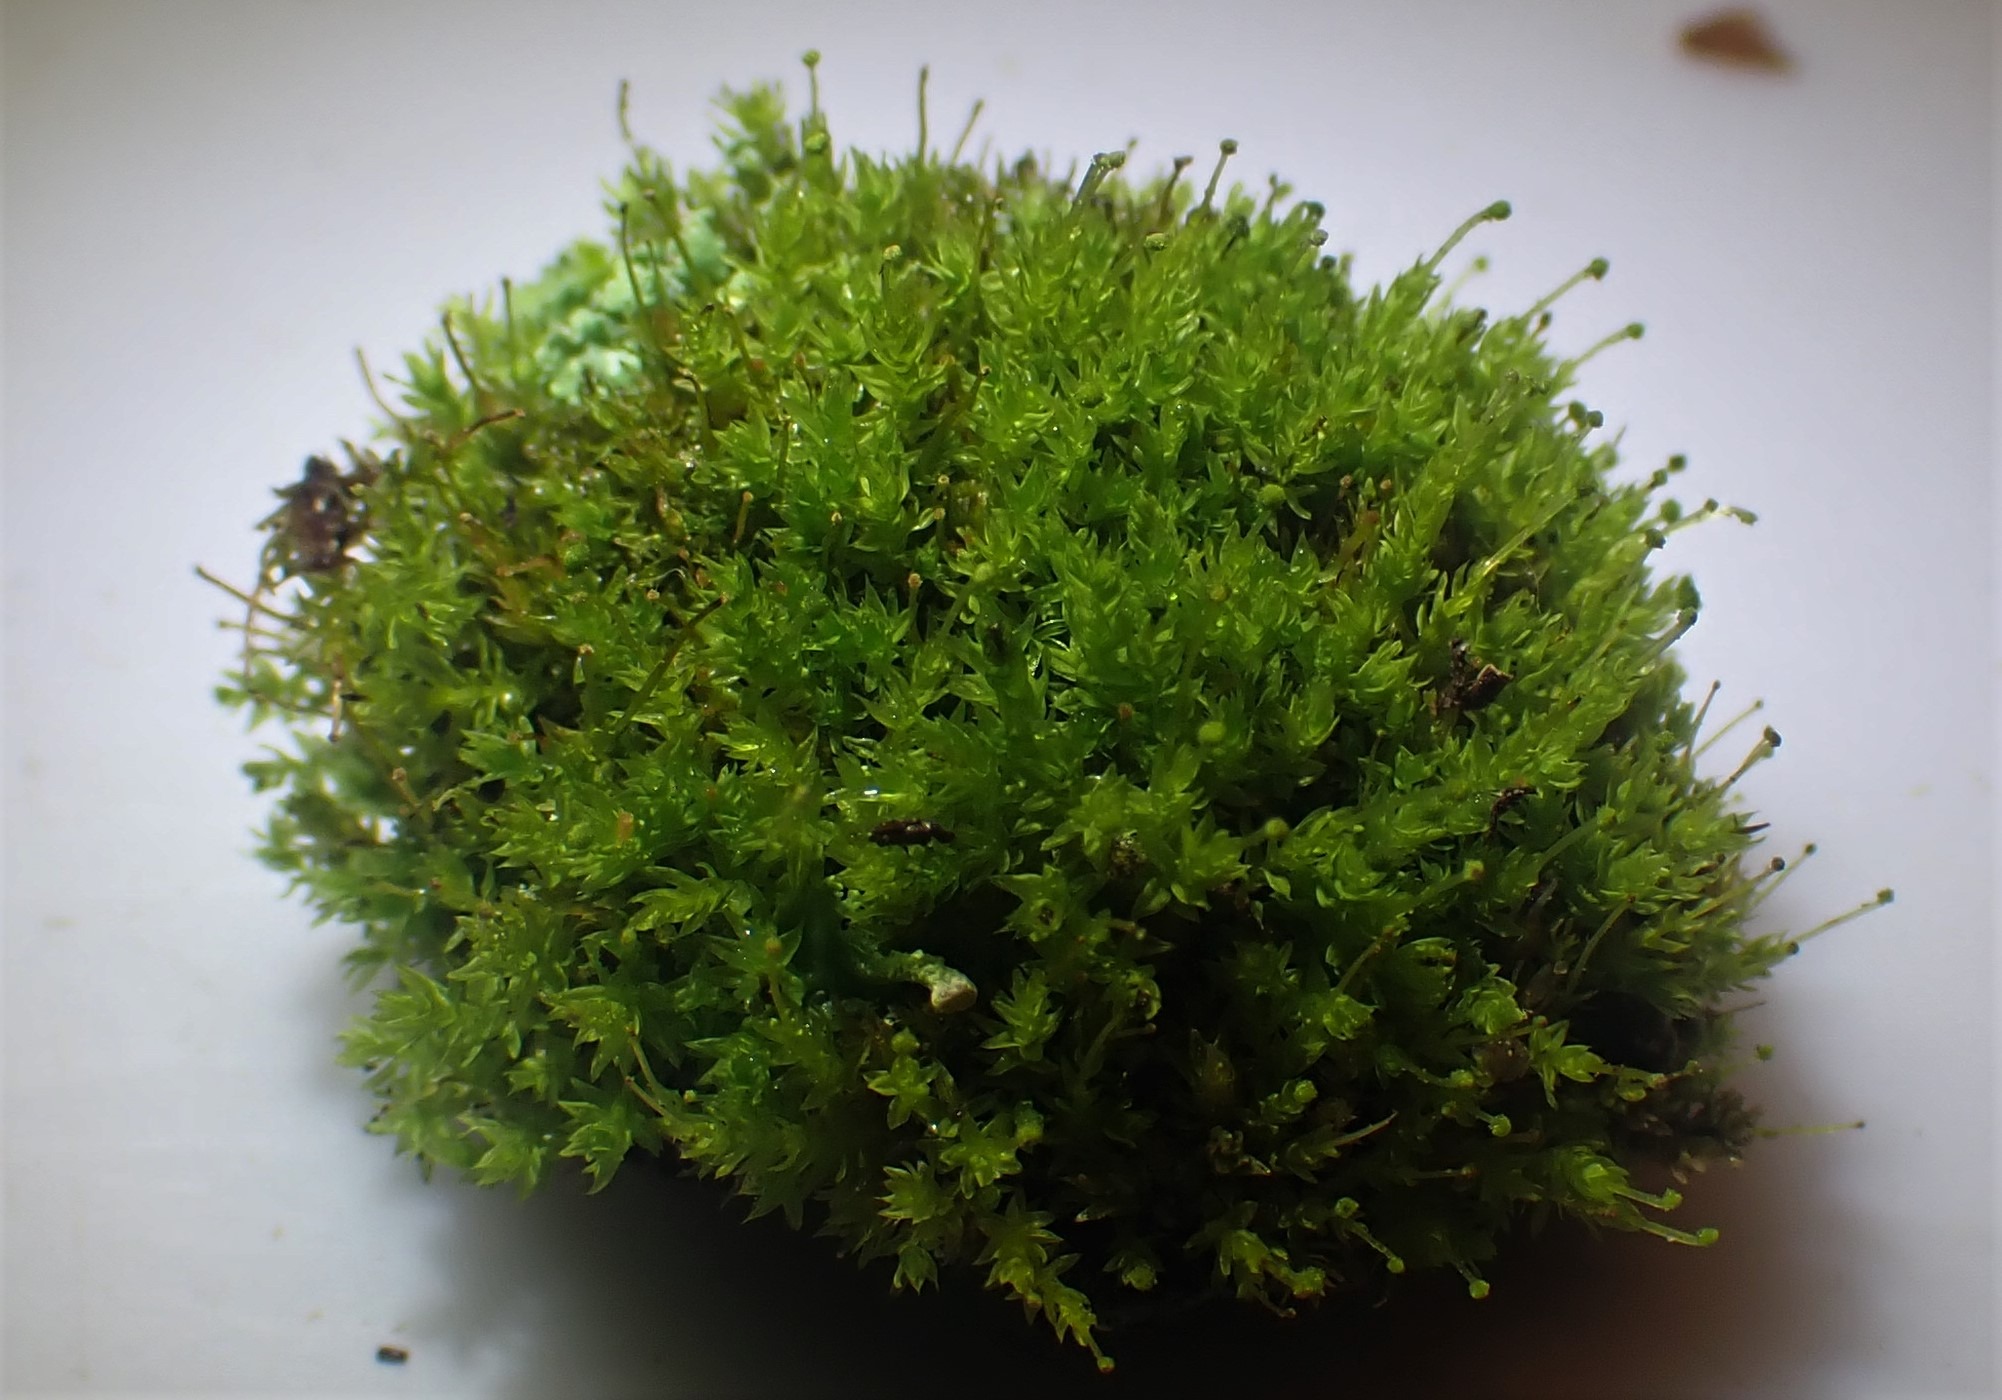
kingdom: Plantae
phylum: Bryophyta
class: Bryopsida
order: Aulacomniales
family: Aulacomniaceae
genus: Aulacomnium
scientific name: Aulacomnium androgynum
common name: Kugle-filtmos
